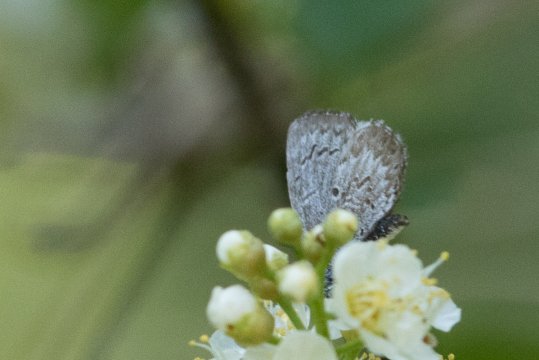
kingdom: Animalia
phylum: Arthropoda
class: Insecta
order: Lepidoptera
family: Lycaenidae
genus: Celastrina
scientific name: Celastrina
